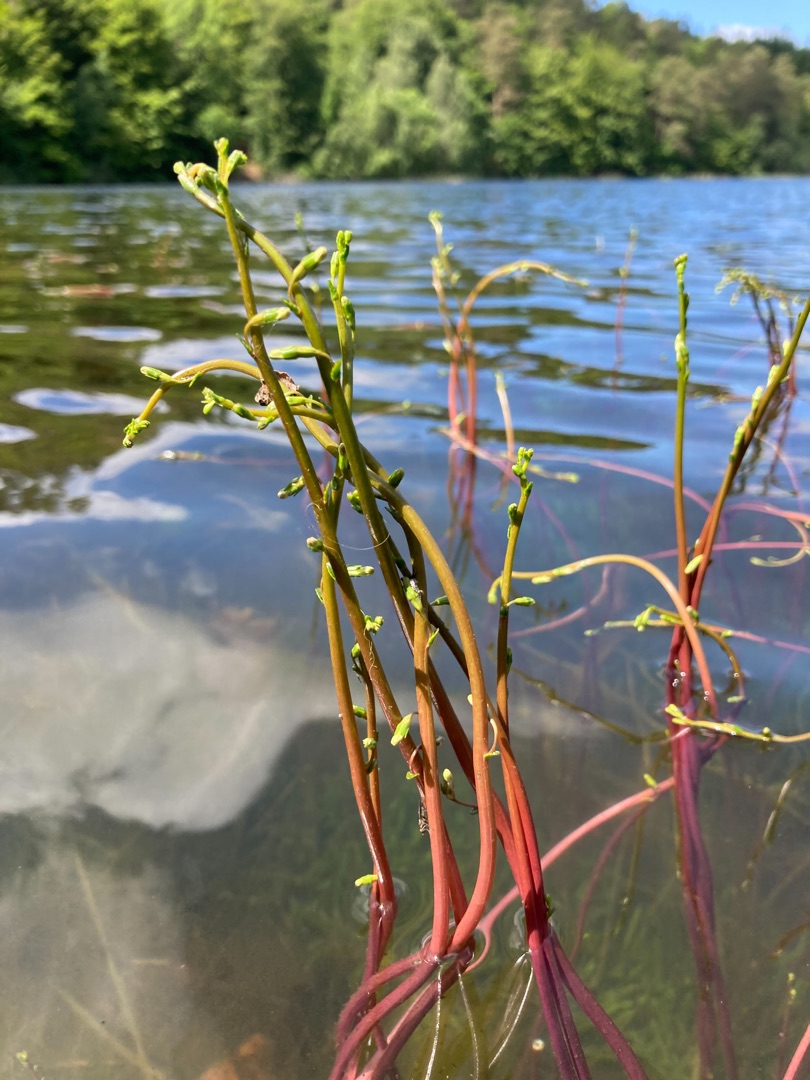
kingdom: Plantae
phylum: Tracheophyta
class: Magnoliopsida
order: Asterales
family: Campanulaceae
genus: Lobelia
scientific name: Lobelia dortmanna
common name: Tvepibet lobelie
